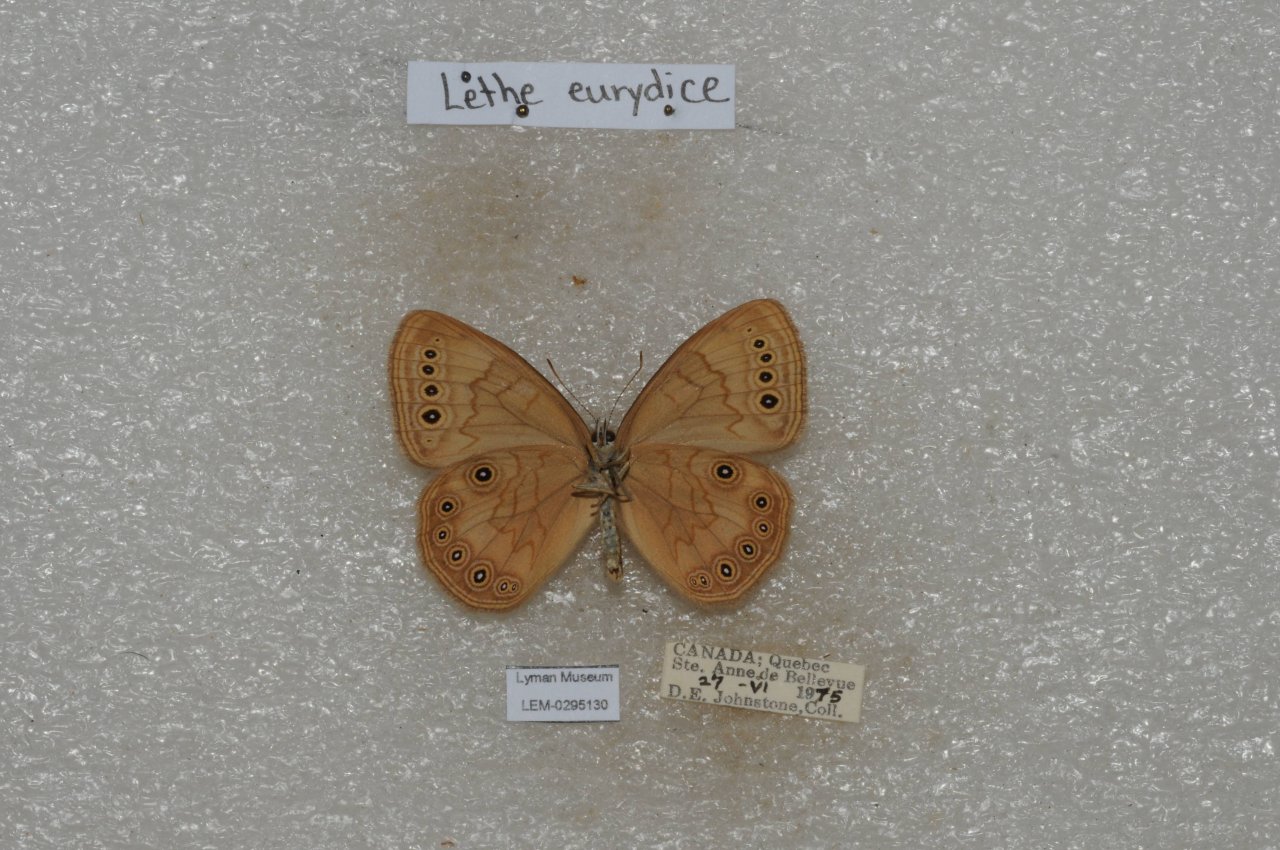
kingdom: Animalia
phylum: Arthropoda
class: Insecta
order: Lepidoptera
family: Nymphalidae
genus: Lethe
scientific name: Lethe eurydice
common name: Eyed Brown
